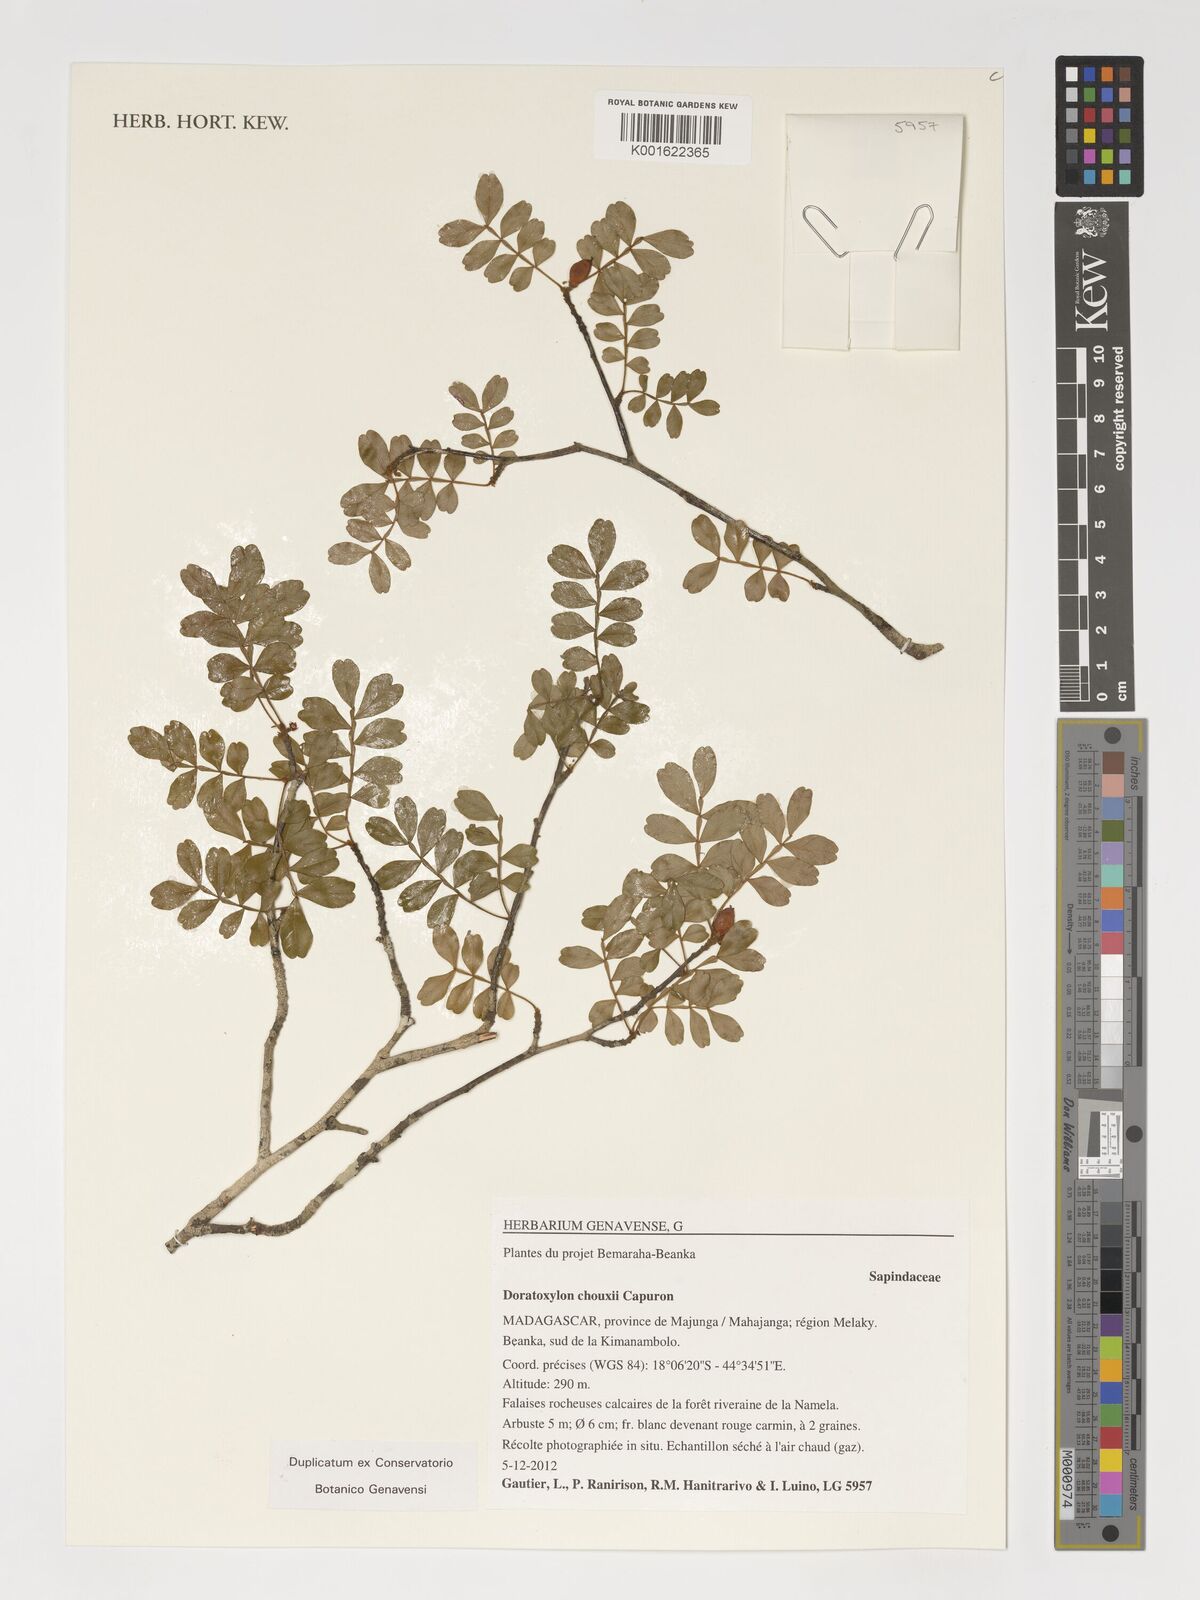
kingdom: Plantae
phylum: Tracheophyta
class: Magnoliopsida
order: Sapindales
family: Sapindaceae
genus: Doratoxylon
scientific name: Doratoxylon chouxii
